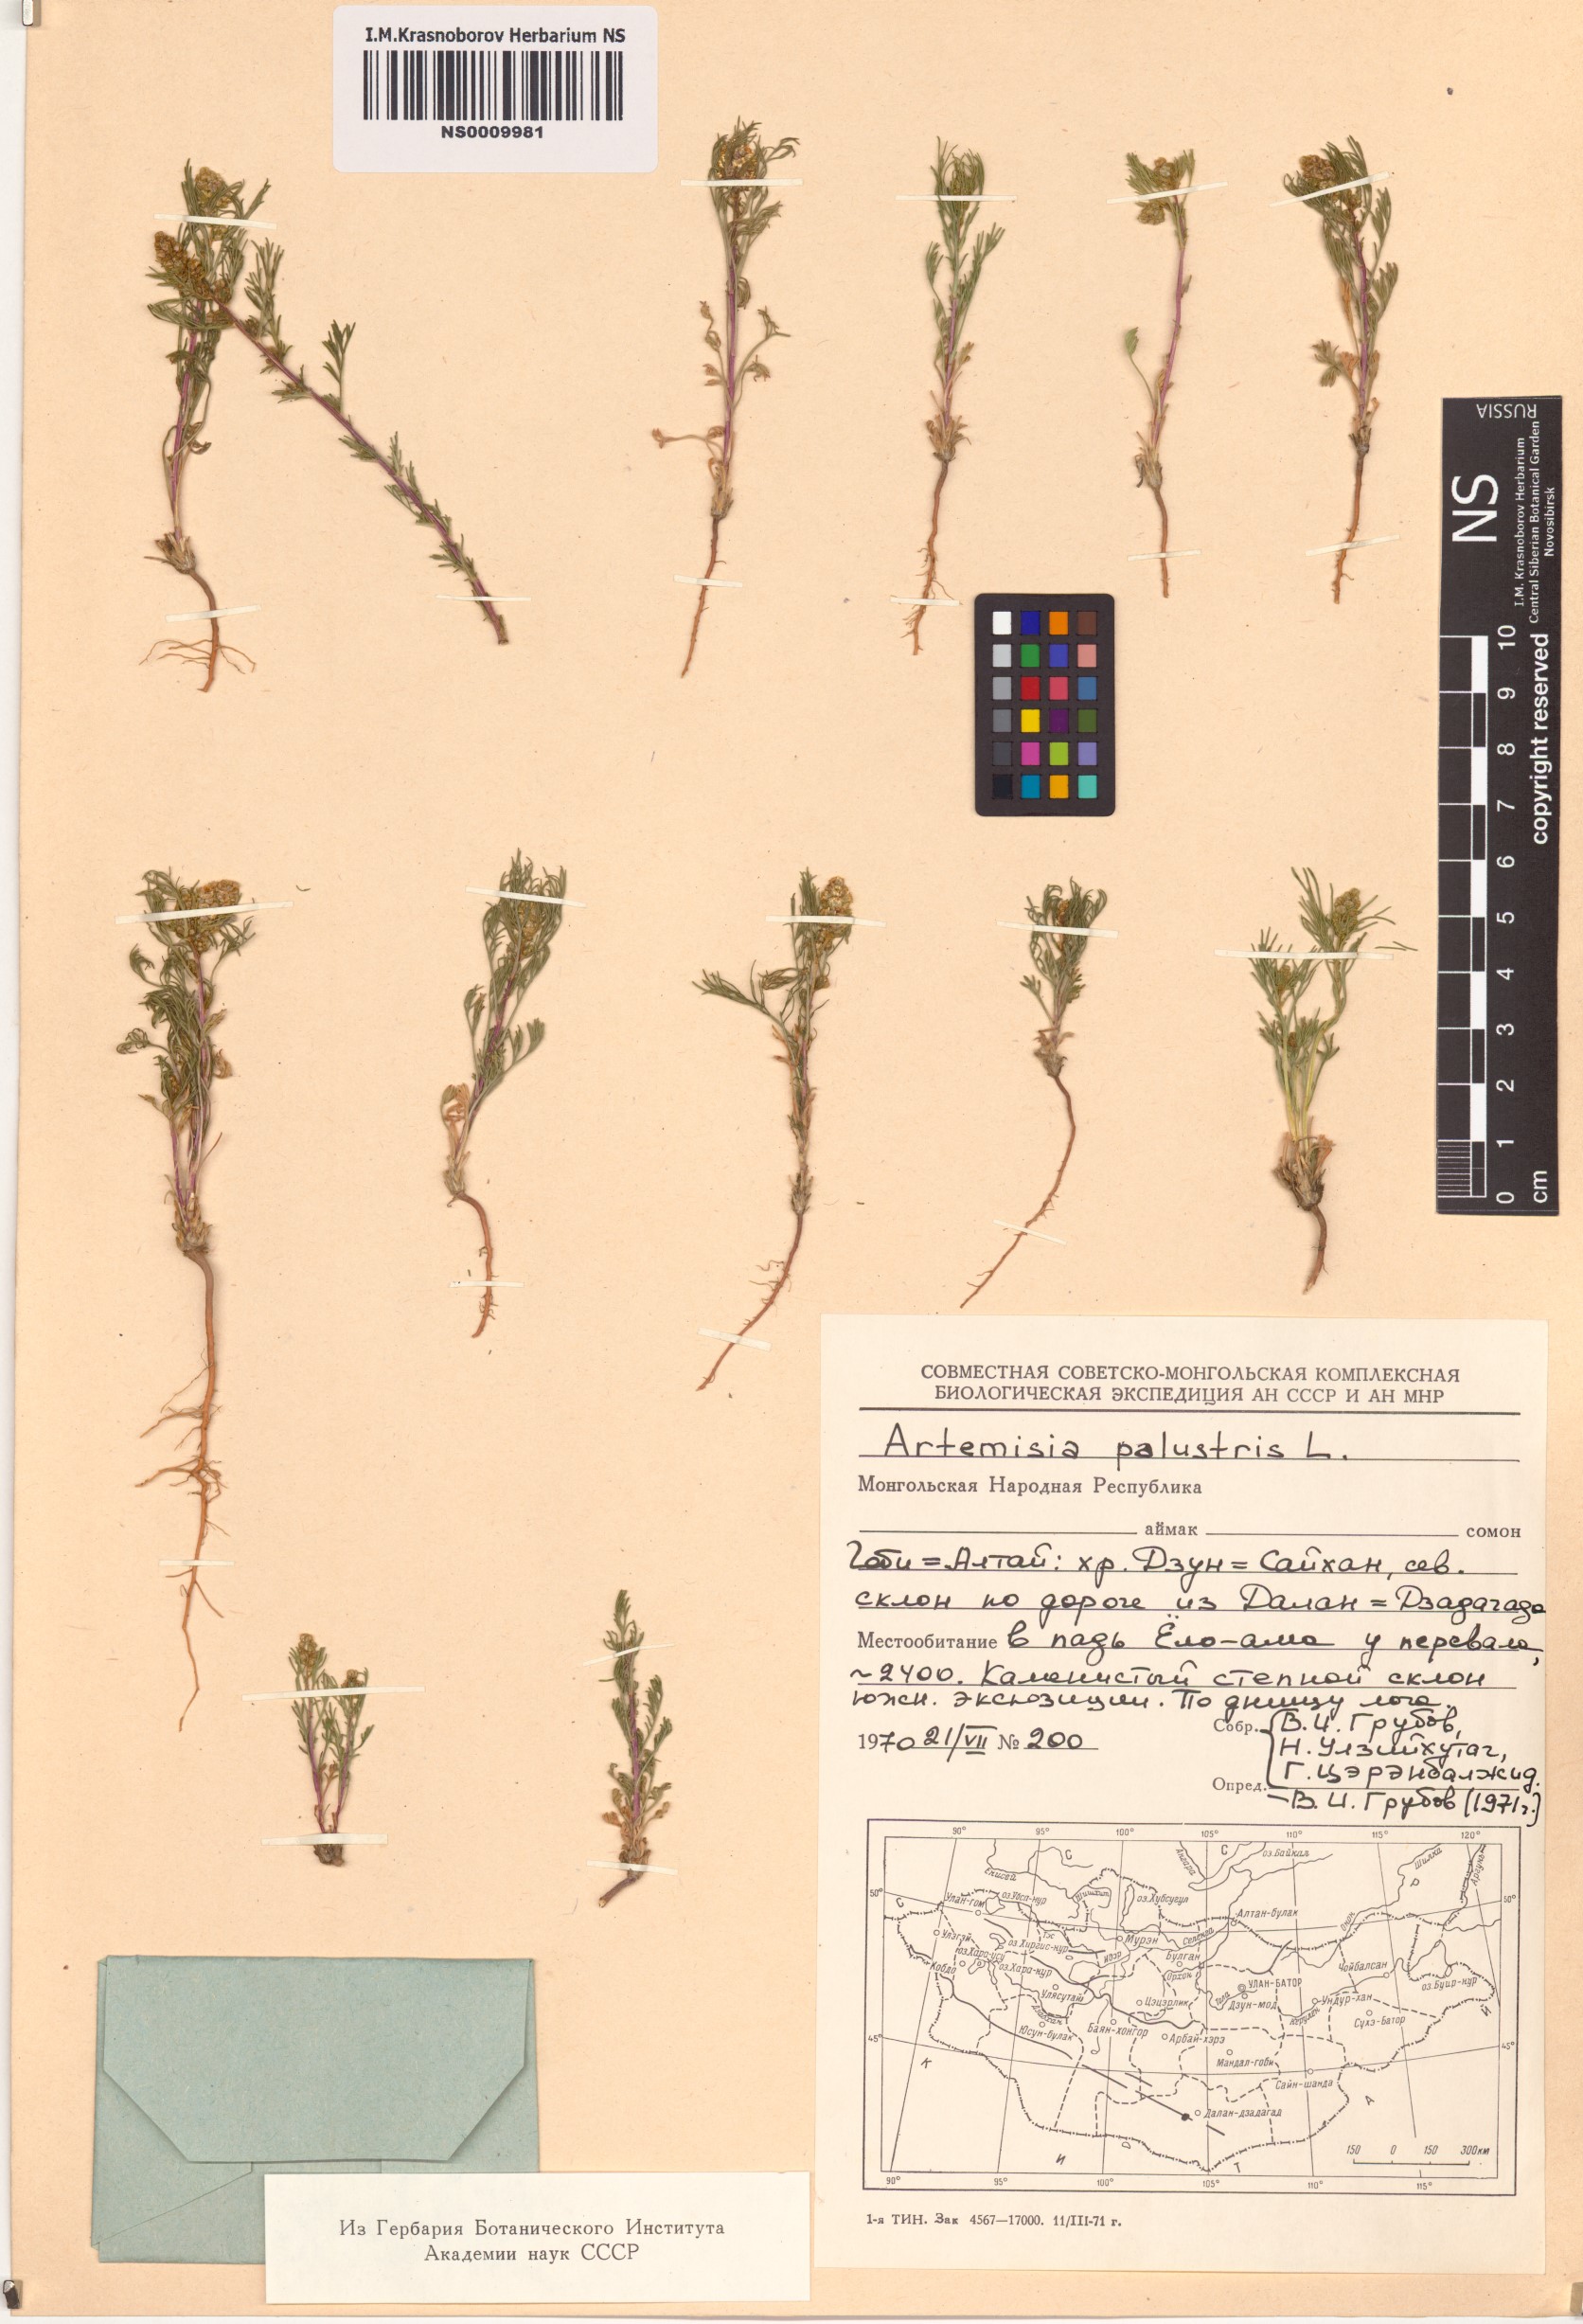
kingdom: Plantae
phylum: Tracheophyta
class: Magnoliopsida
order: Asterales
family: Asteraceae
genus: Artemisia
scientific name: Artemisia palustris
